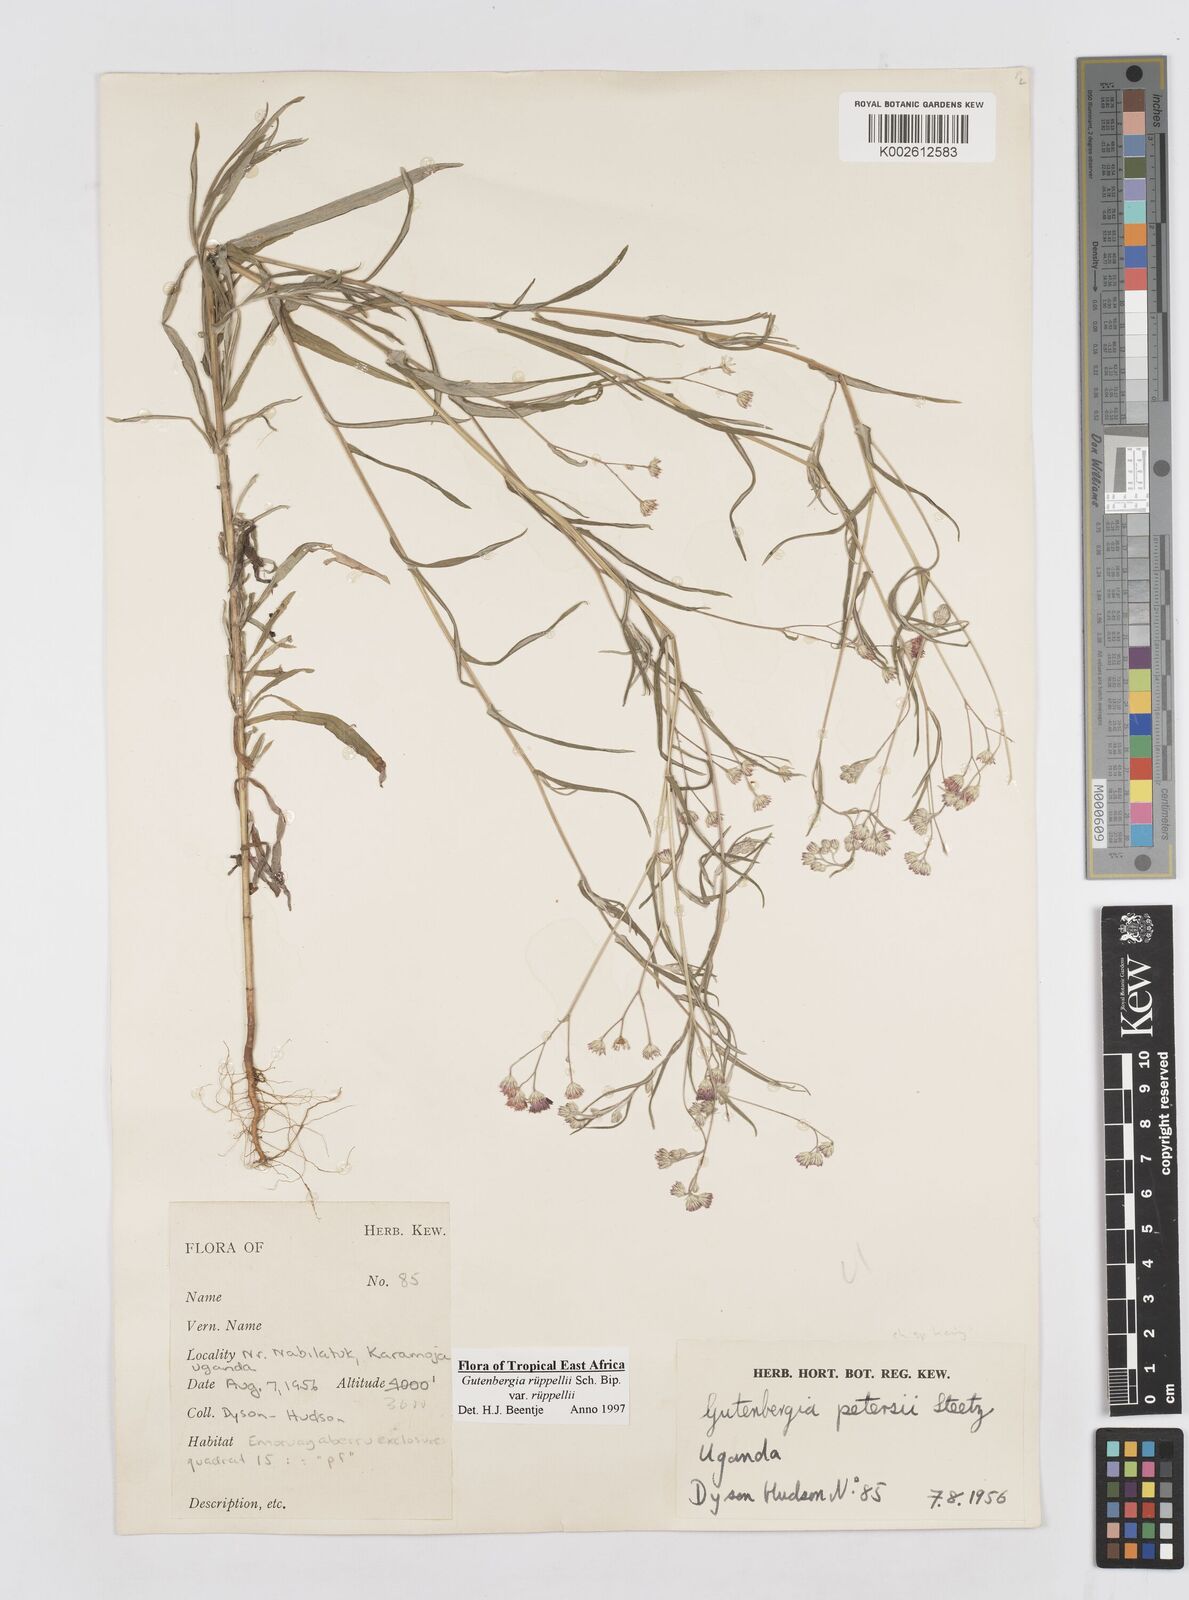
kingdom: Plantae
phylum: Tracheophyta
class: Magnoliopsida
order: Asterales
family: Asteraceae
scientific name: Asteraceae
